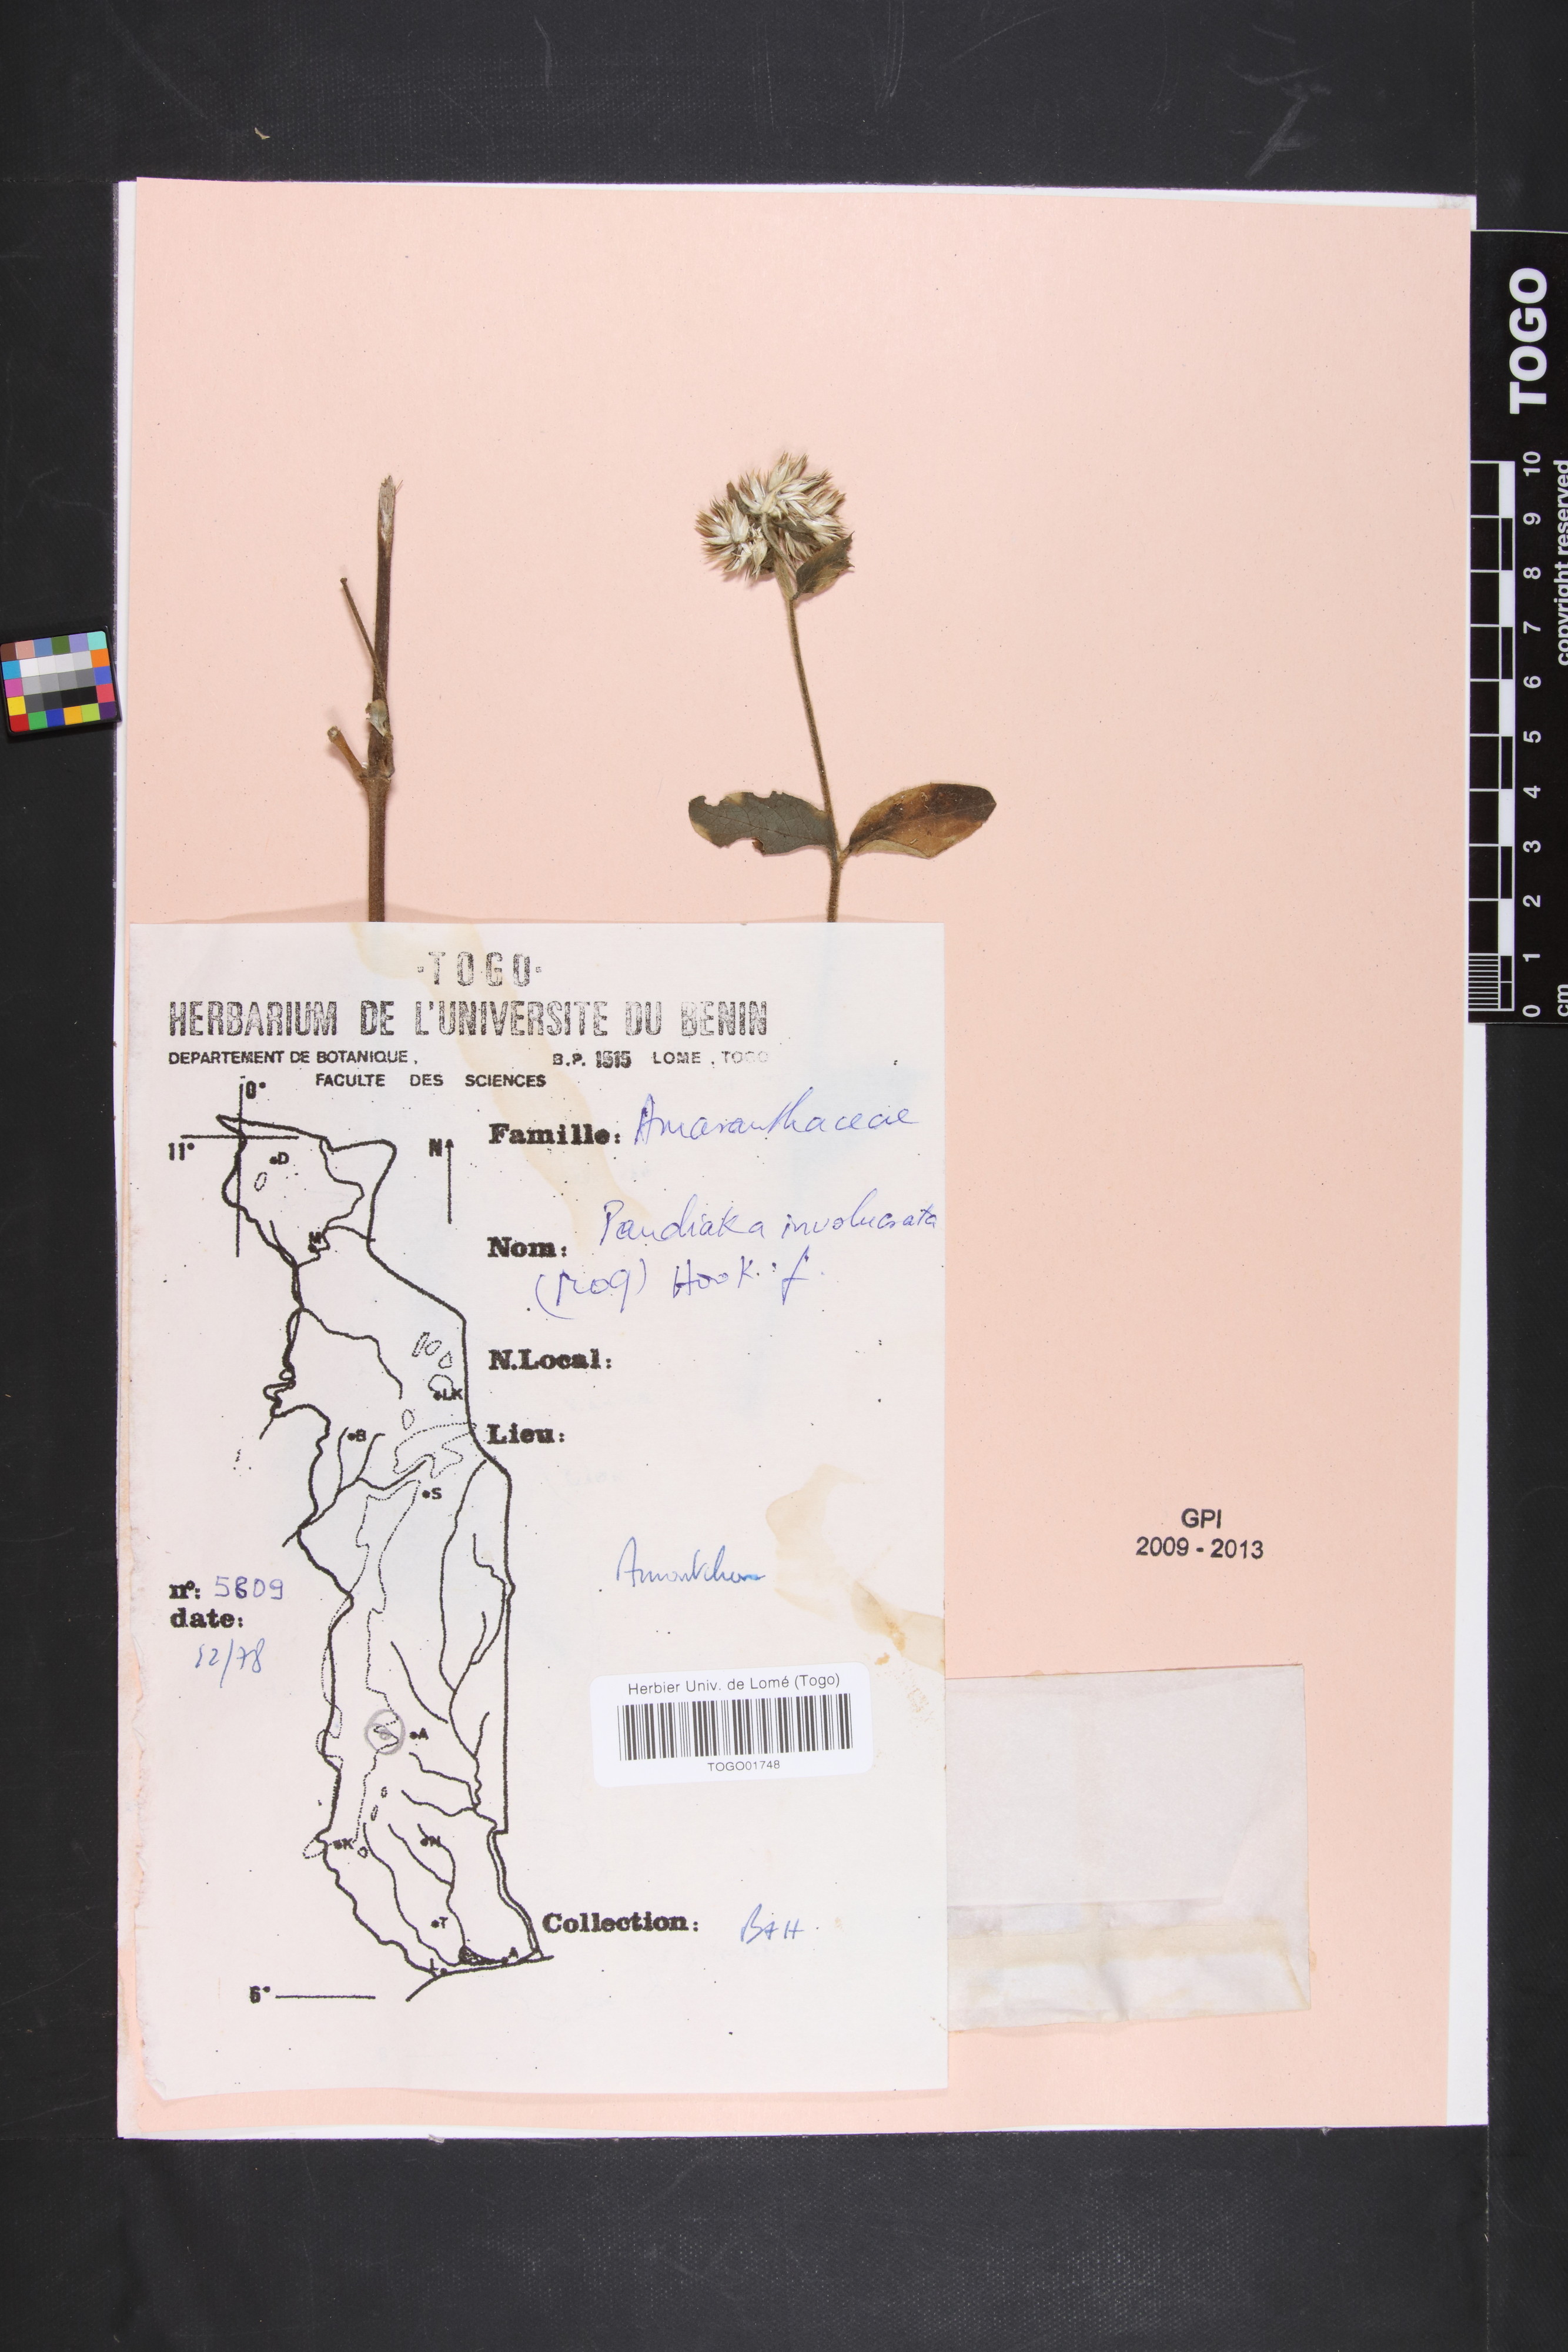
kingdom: Plantae
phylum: Tracheophyta
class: Magnoliopsida
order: Caryophyllales
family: Amaranthaceae
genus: Pandiaka
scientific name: Pandiaka involucrata
